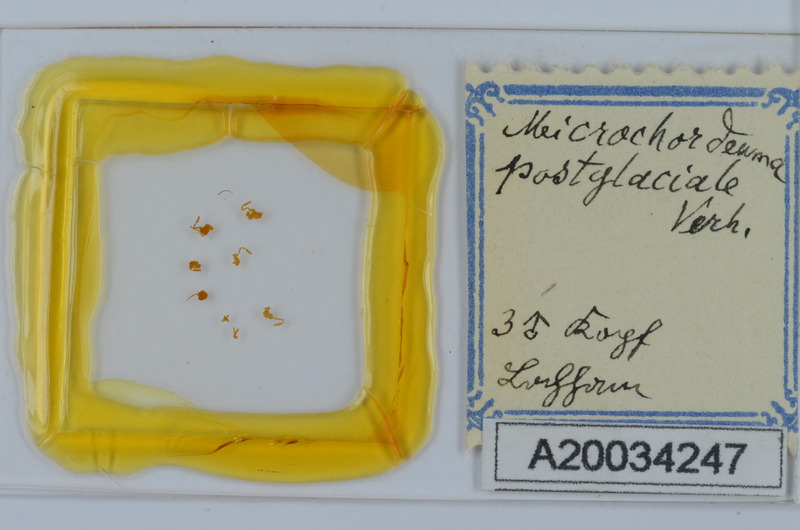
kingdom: Animalia
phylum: Arthropoda
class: Diplopoda
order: Chordeumatida
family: Chordeumatidae
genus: Melogona
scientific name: Melogona voigtii
